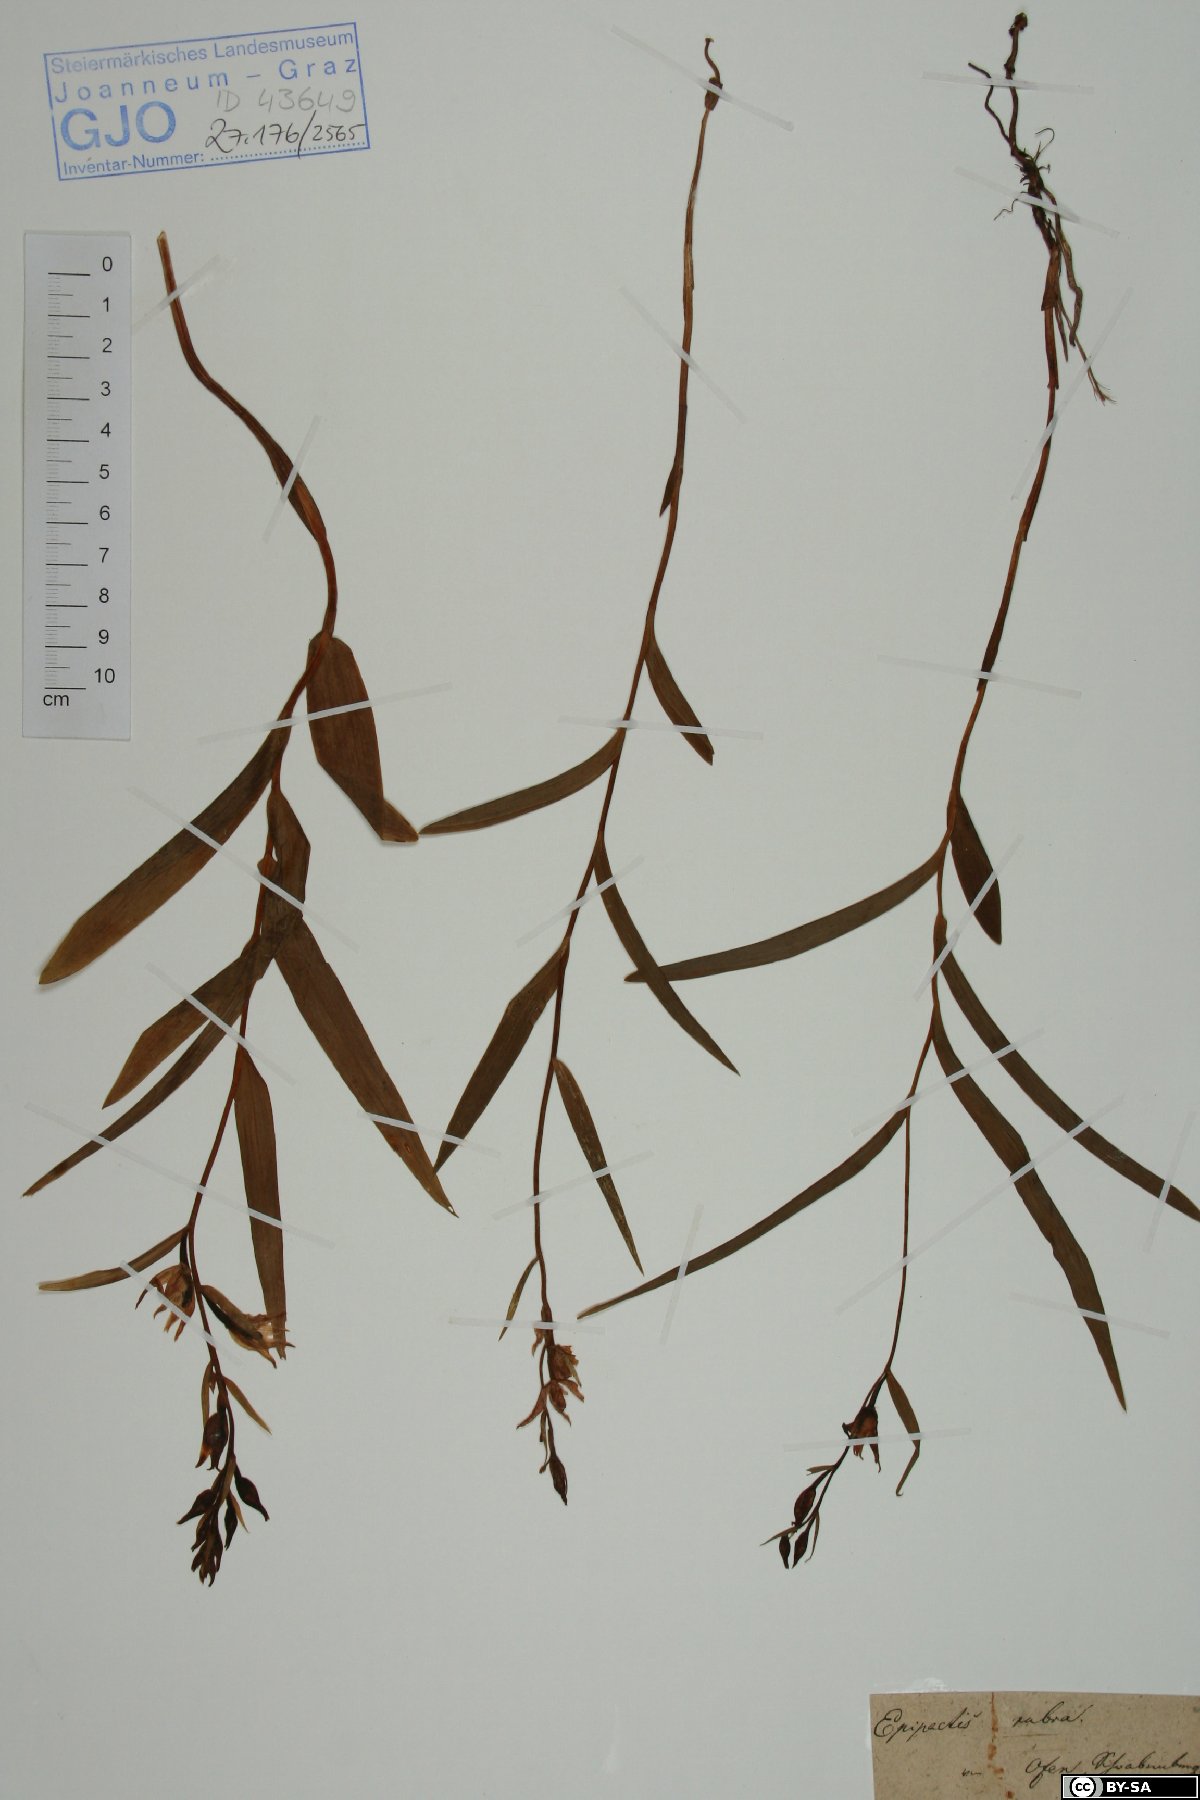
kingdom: Plantae
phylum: Tracheophyta
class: Liliopsida
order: Asparagales
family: Orchidaceae
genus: Cephalanthera
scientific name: Cephalanthera rubra
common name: Red helleborine
